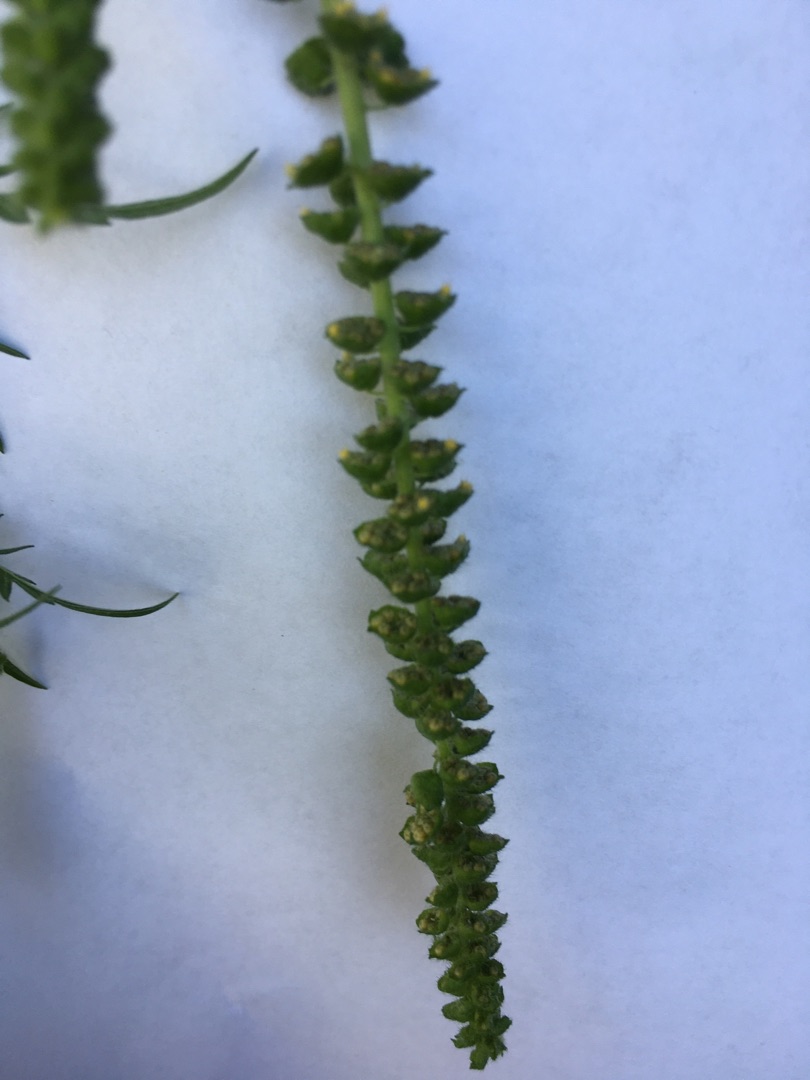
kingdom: Plantae
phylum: Tracheophyta
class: Magnoliopsida
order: Asterales
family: Asteraceae
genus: Ambrosia
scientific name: Ambrosia artemisiifolia
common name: Bynke-ambrosie
